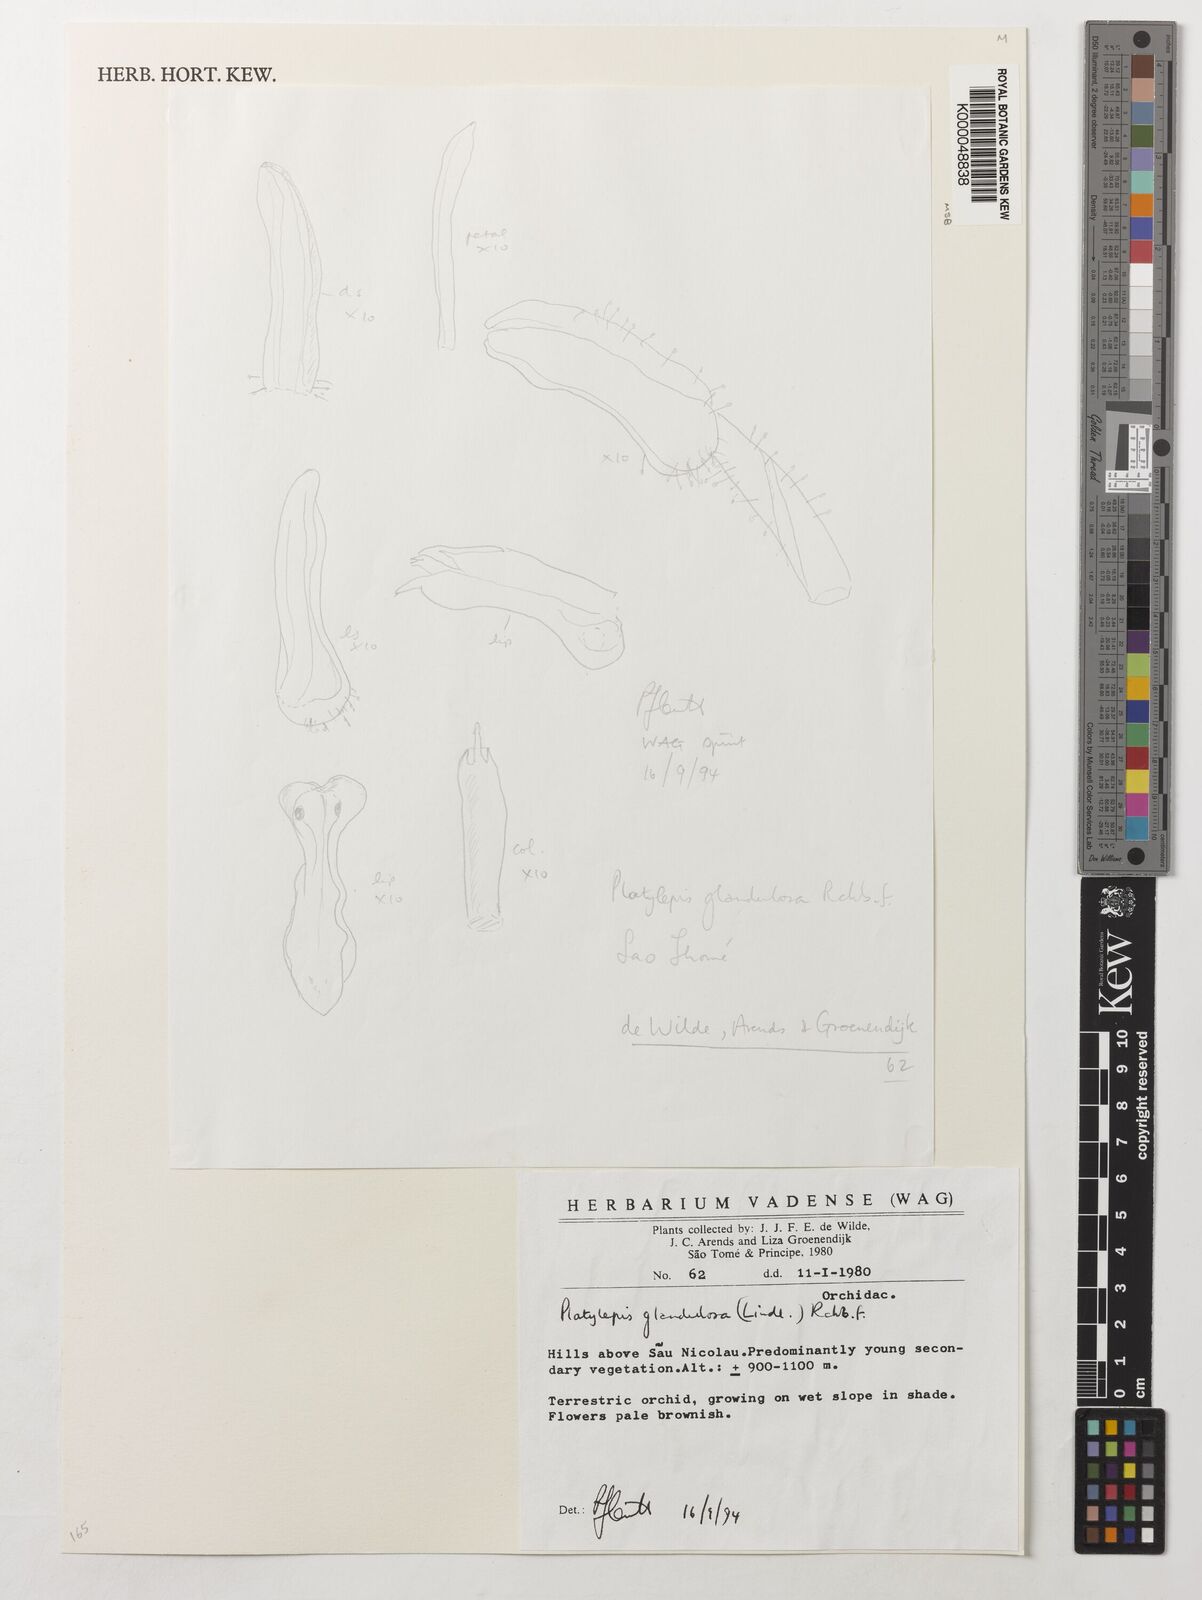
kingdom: Plantae
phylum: Tracheophyta
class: Liliopsida
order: Asparagales
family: Orchidaceae
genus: Platylepis
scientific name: Platylepis glandulosa
